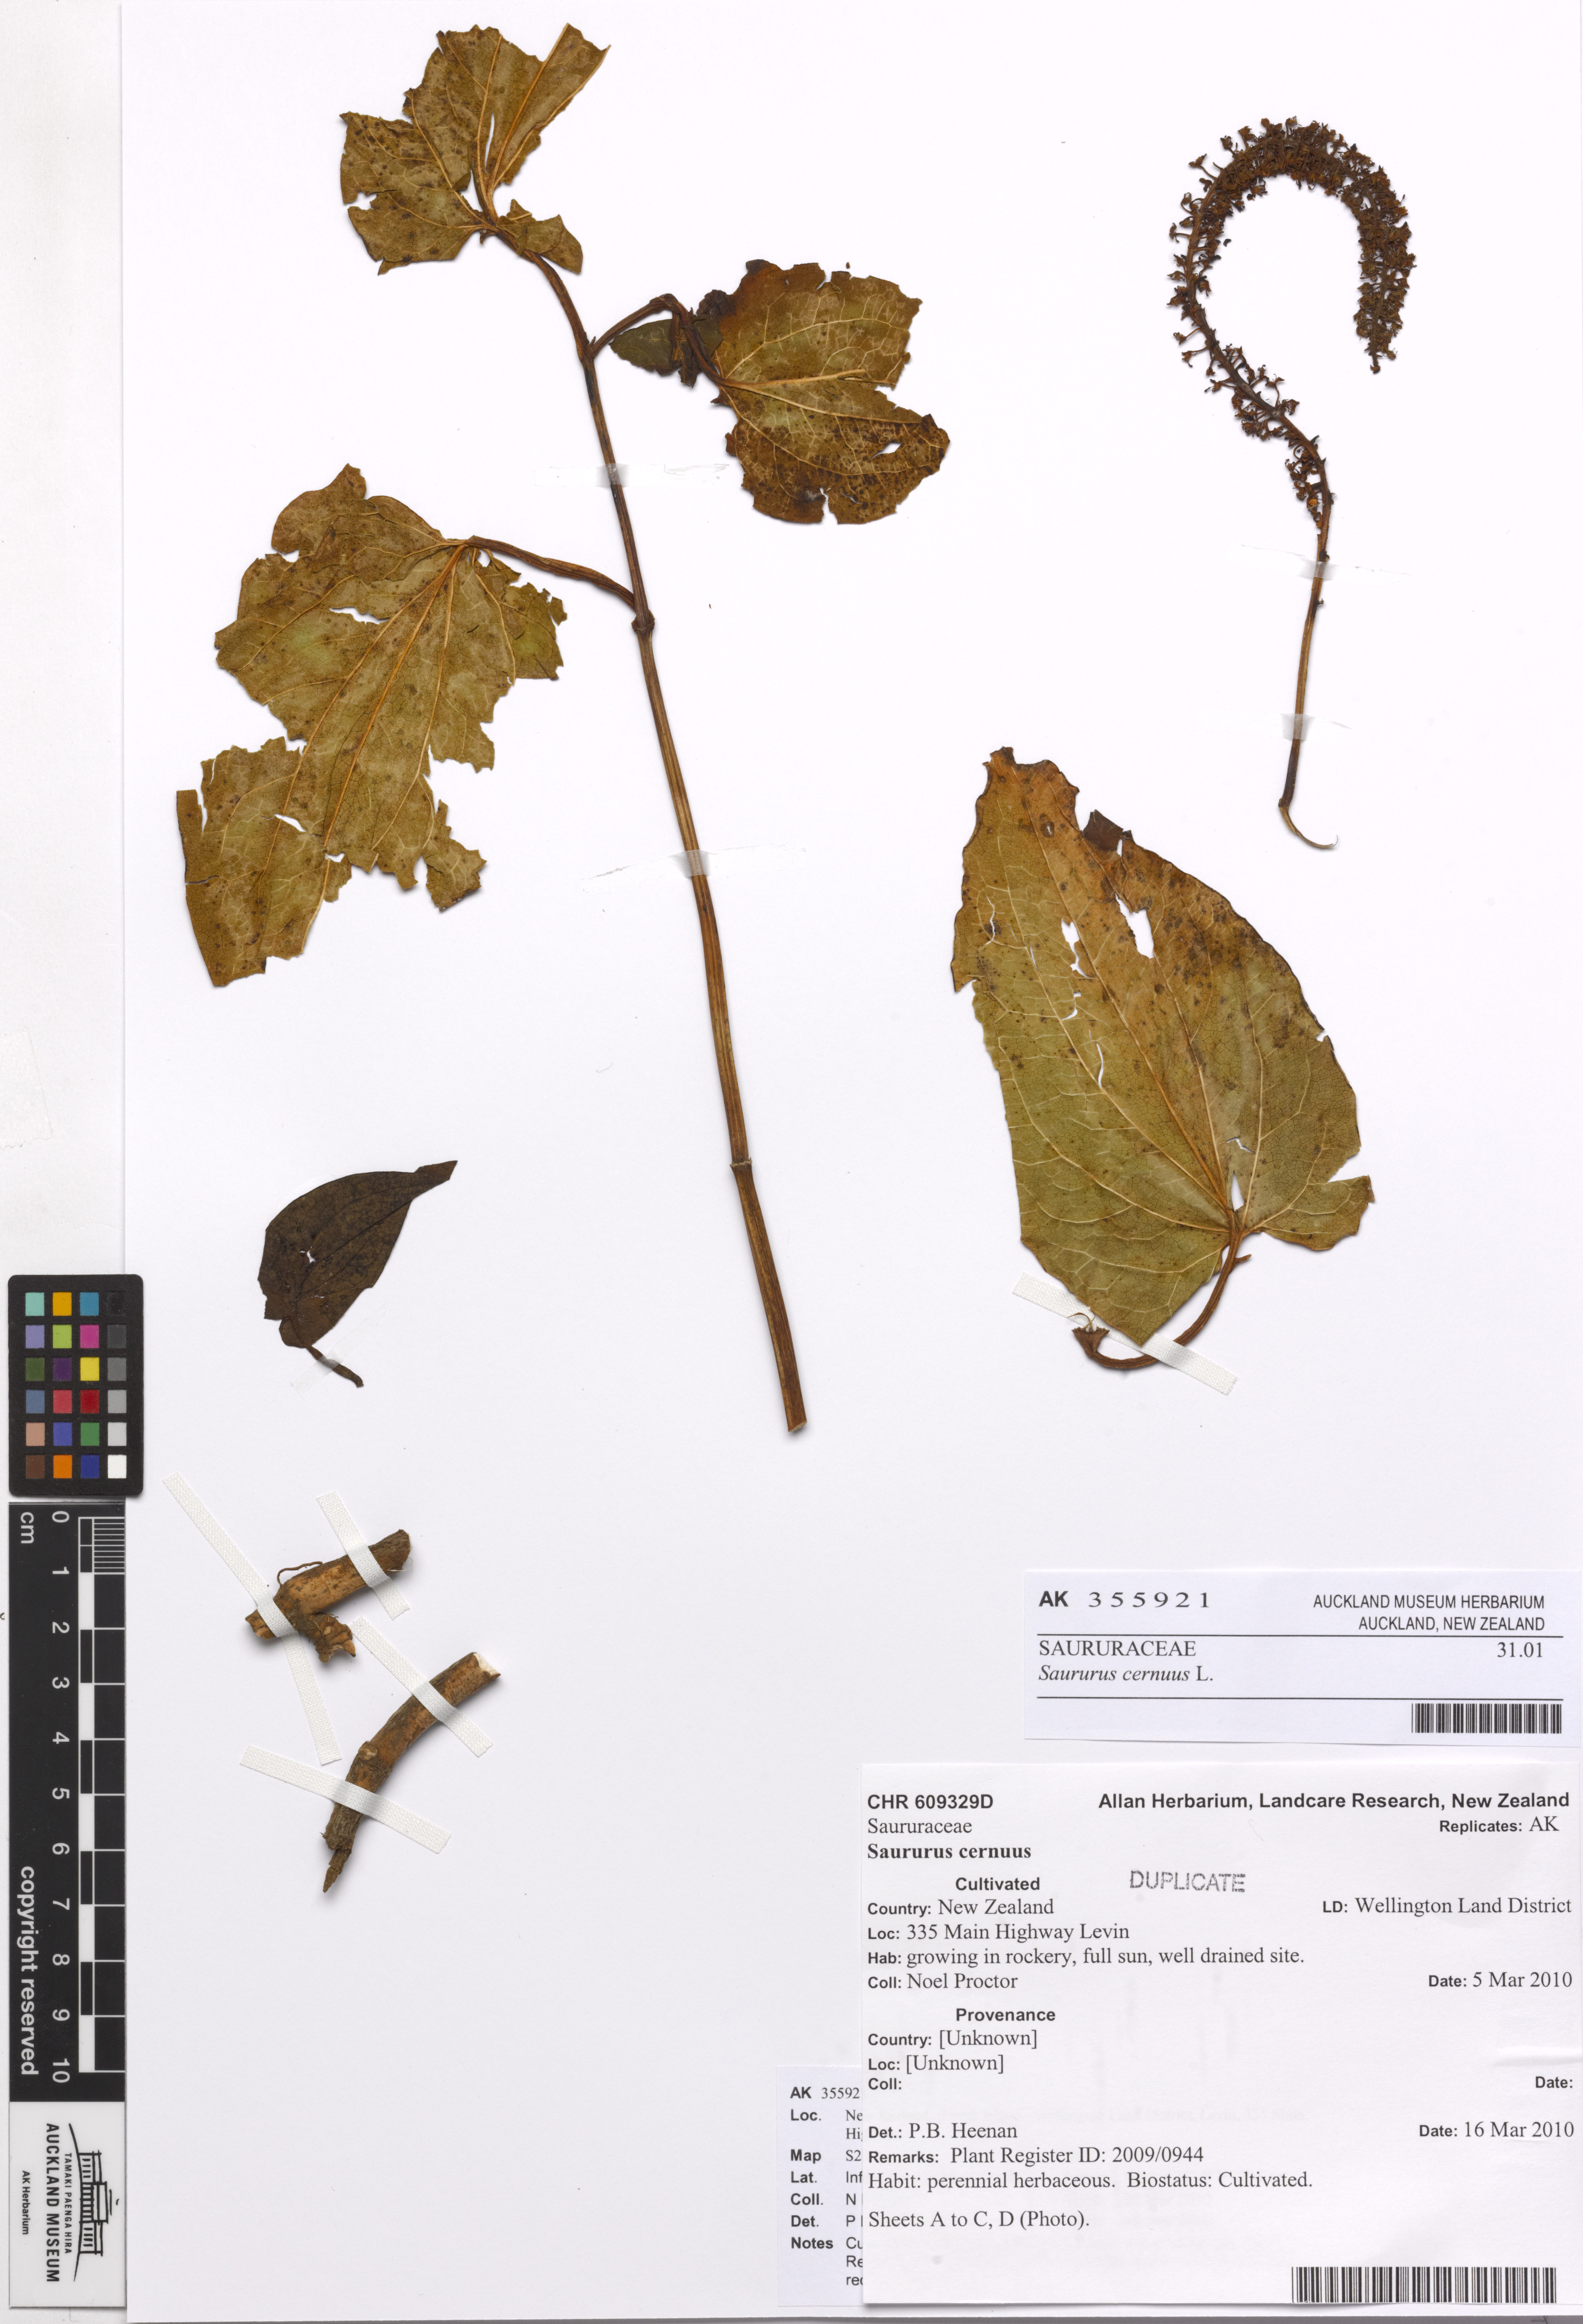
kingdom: Plantae
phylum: Tracheophyta
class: Magnoliopsida
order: Piperales
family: Saururaceae
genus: Saururus
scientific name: Saururus cernuus
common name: Lizard's-tail
